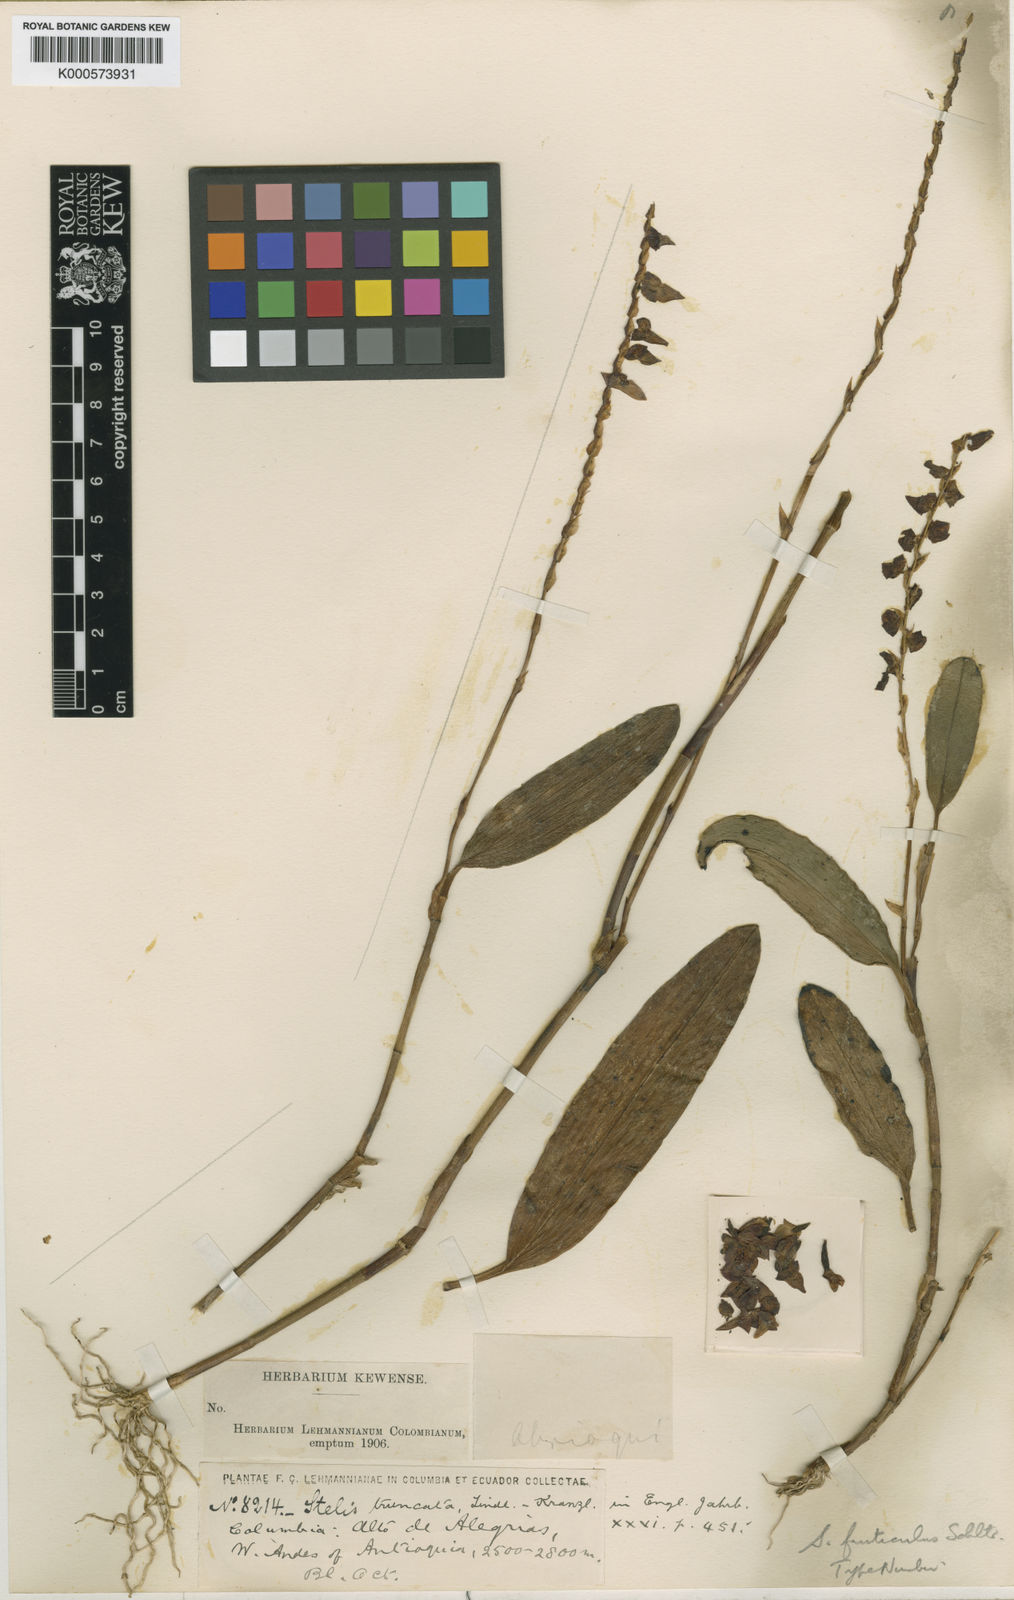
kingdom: Plantae
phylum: Tracheophyta
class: Liliopsida
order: Asparagales
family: Orchidaceae
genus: Stelis
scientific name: Stelis purpurea
